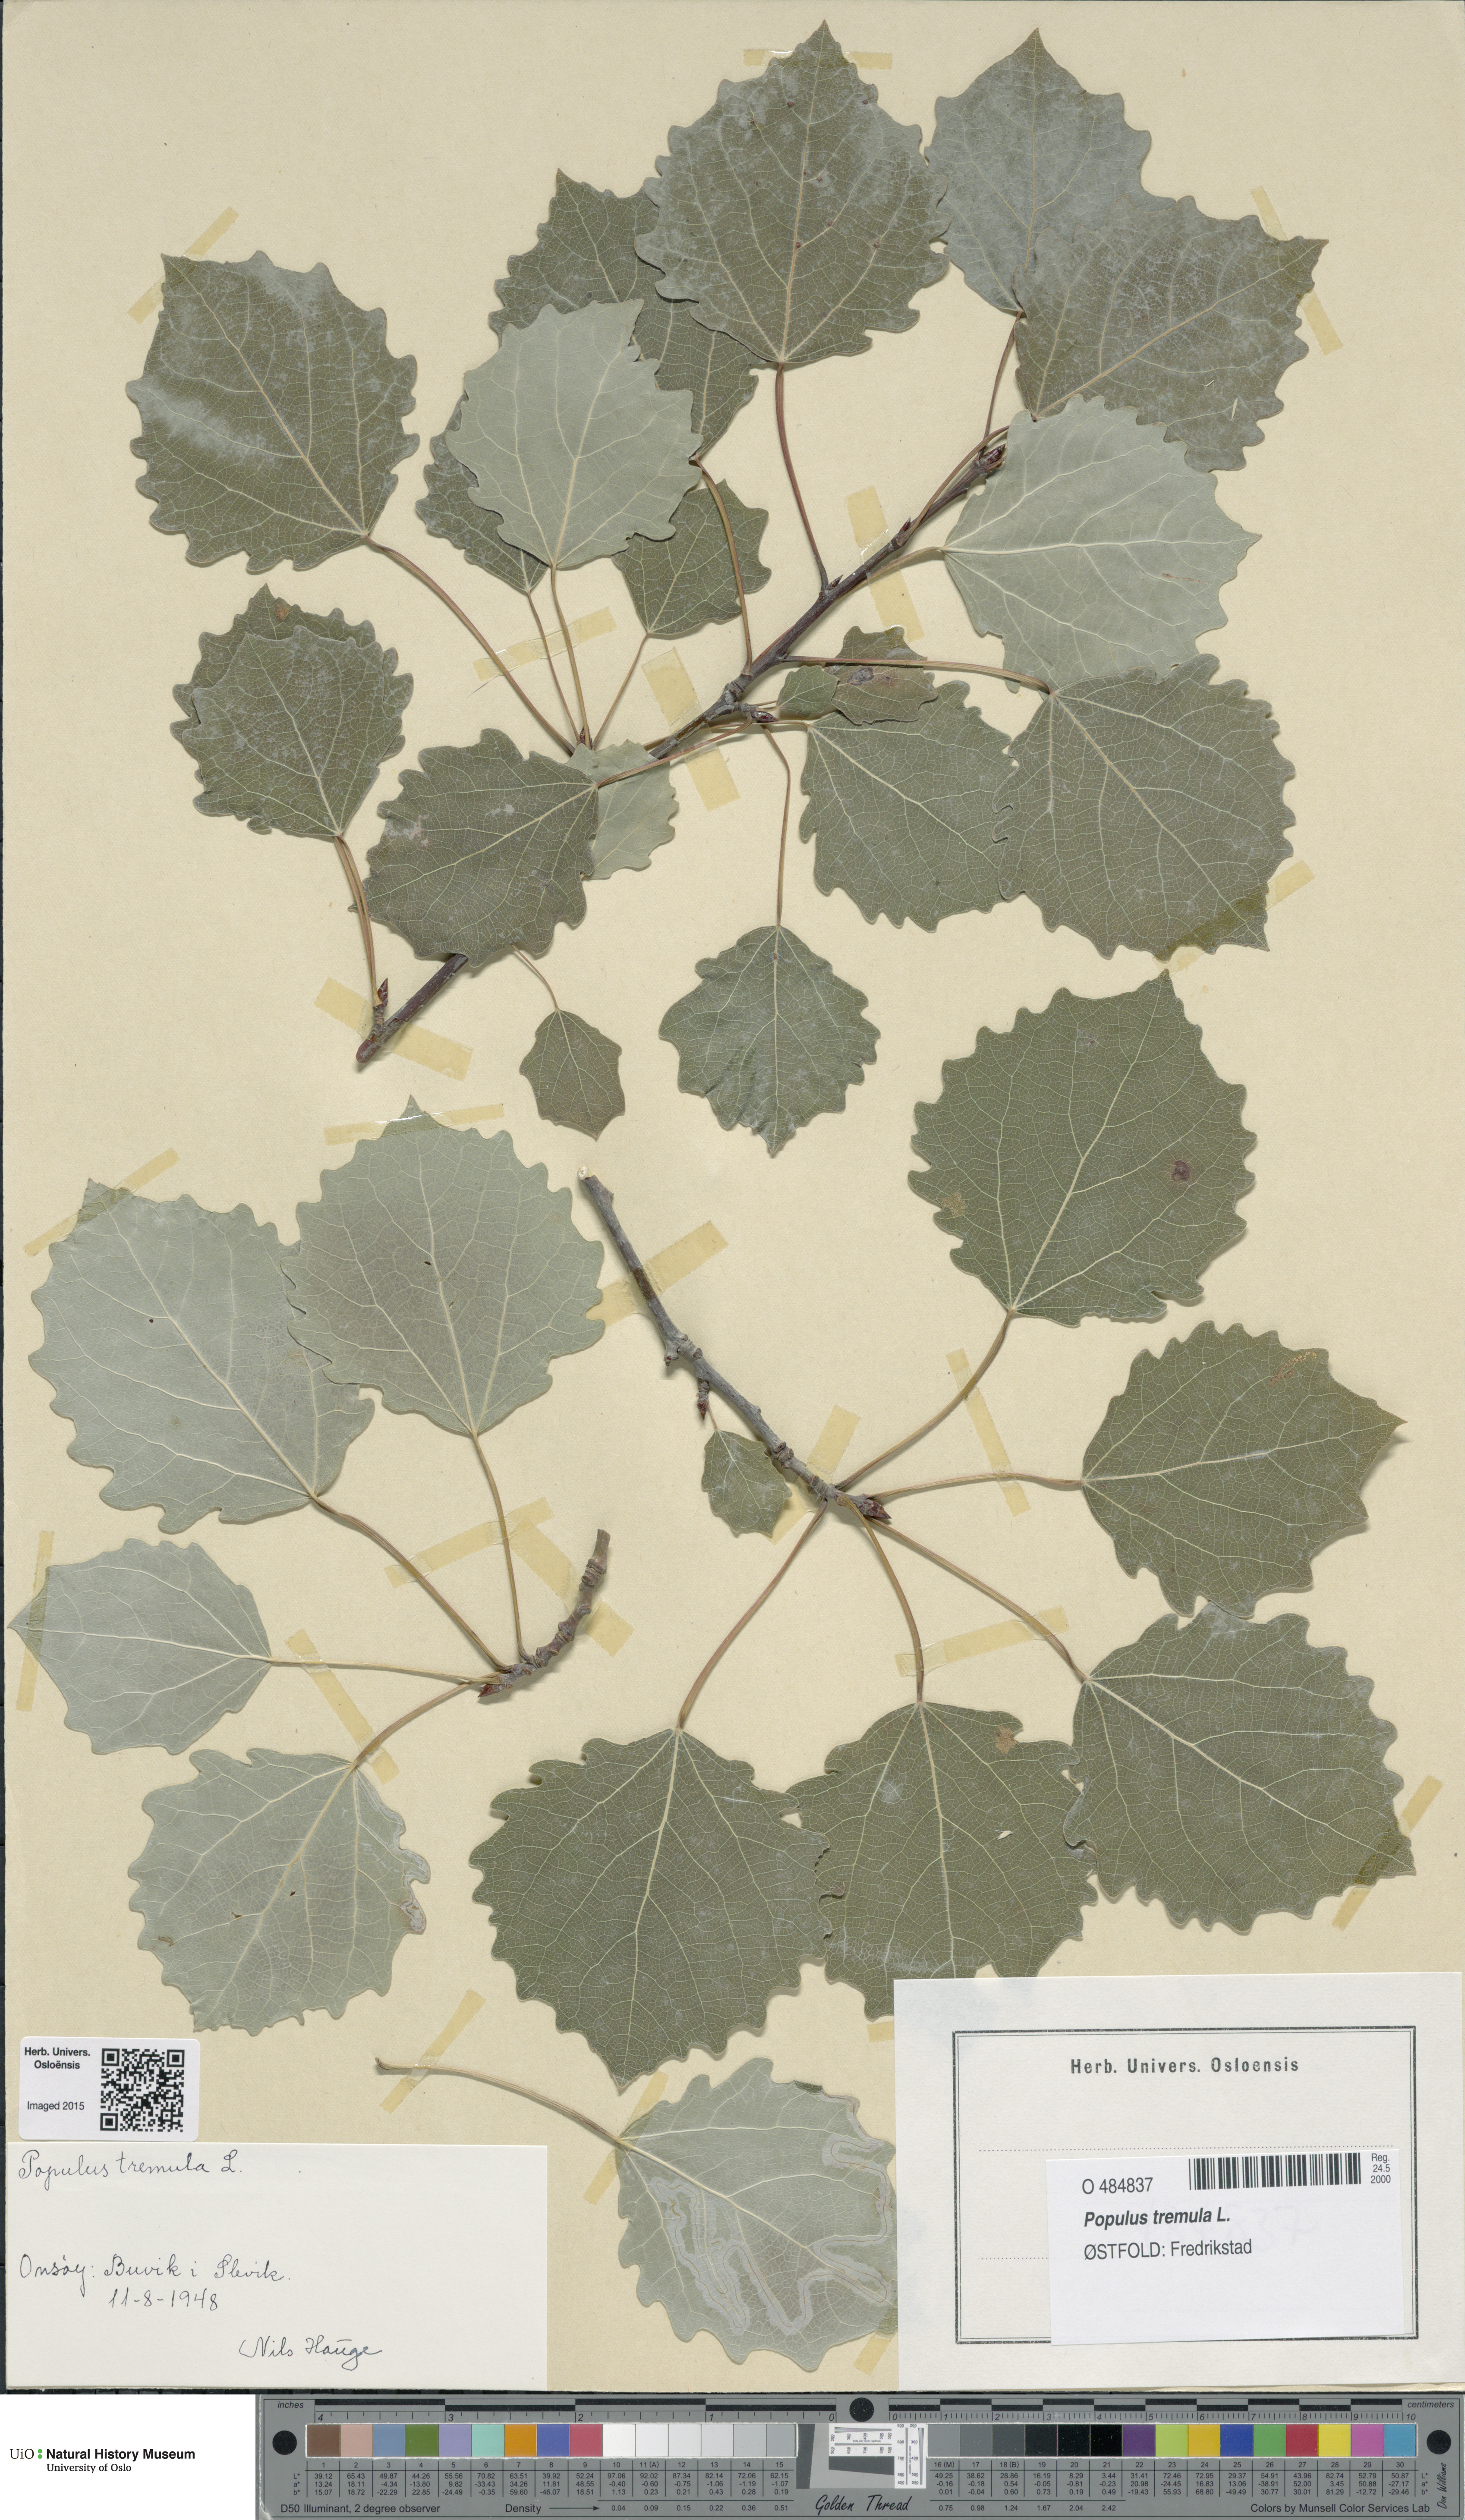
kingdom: Plantae
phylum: Tracheophyta
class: Magnoliopsida
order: Malpighiales
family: Salicaceae
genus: Populus
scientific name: Populus tremula
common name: European aspen
